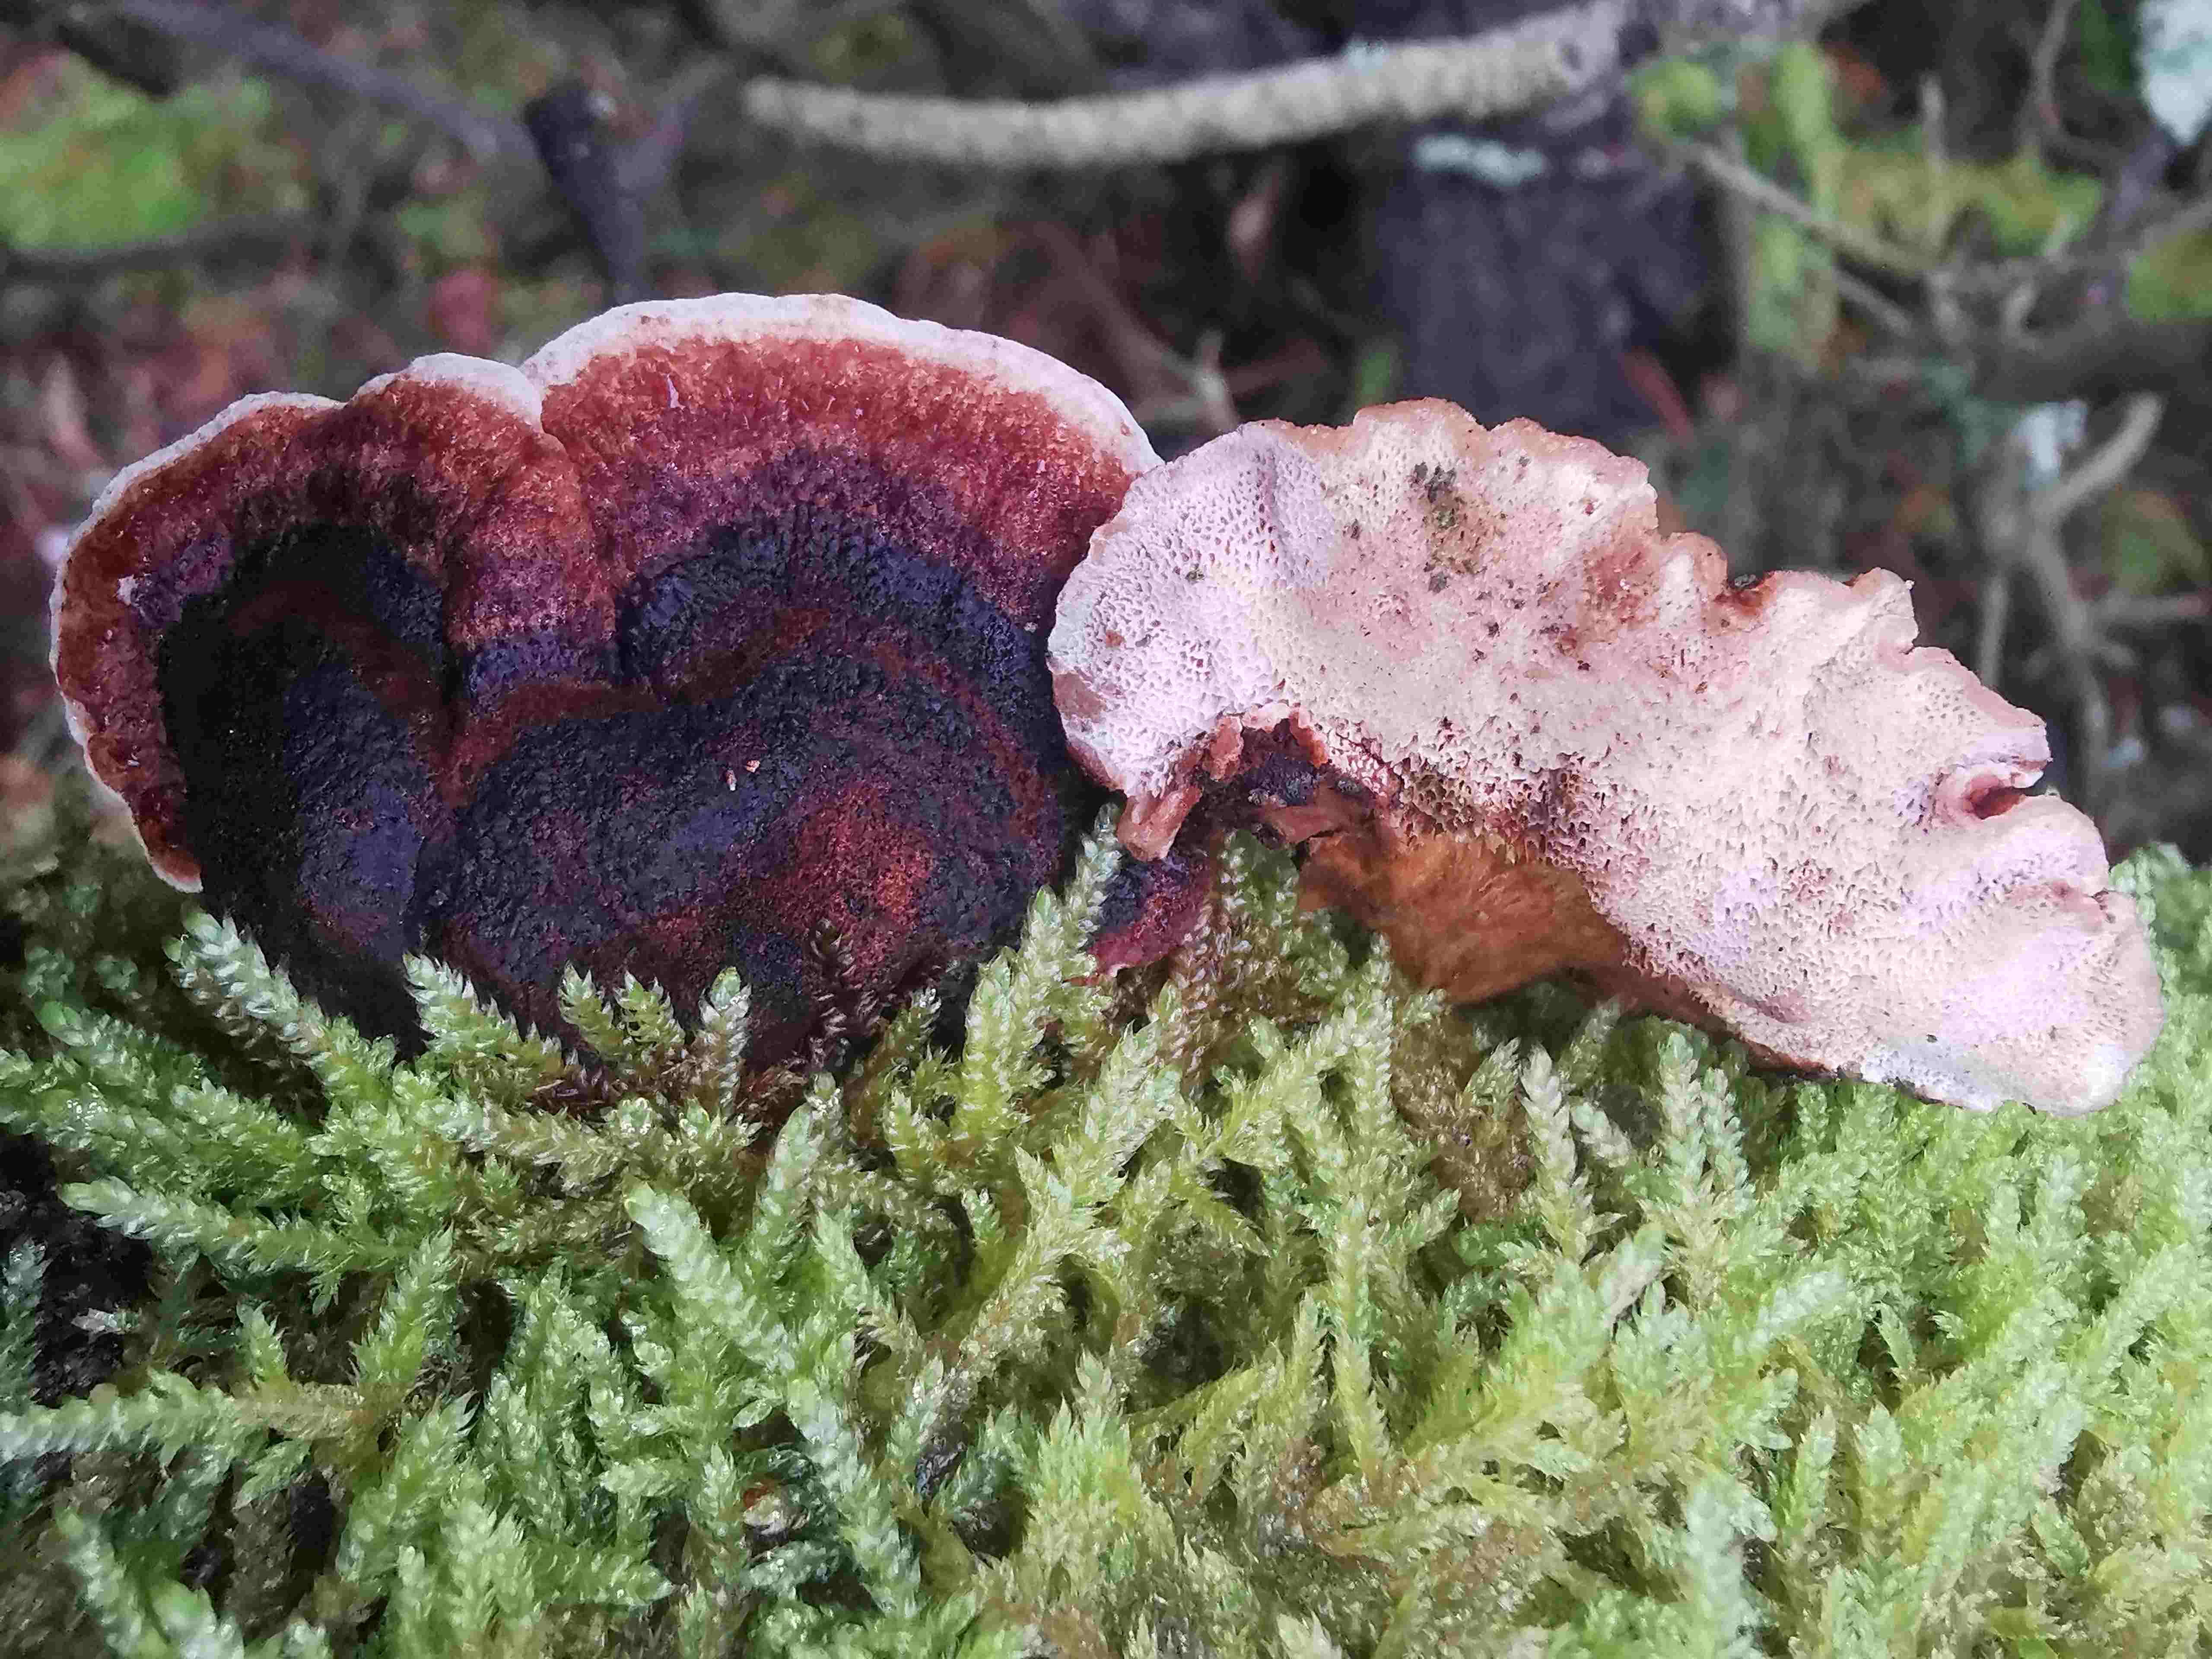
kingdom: Fungi
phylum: Basidiomycota
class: Agaricomycetes
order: Polyporales
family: Ischnodermataceae
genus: Ischnoderma
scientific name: Ischnoderma benzoinum
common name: gran-tjæreporesvamp
